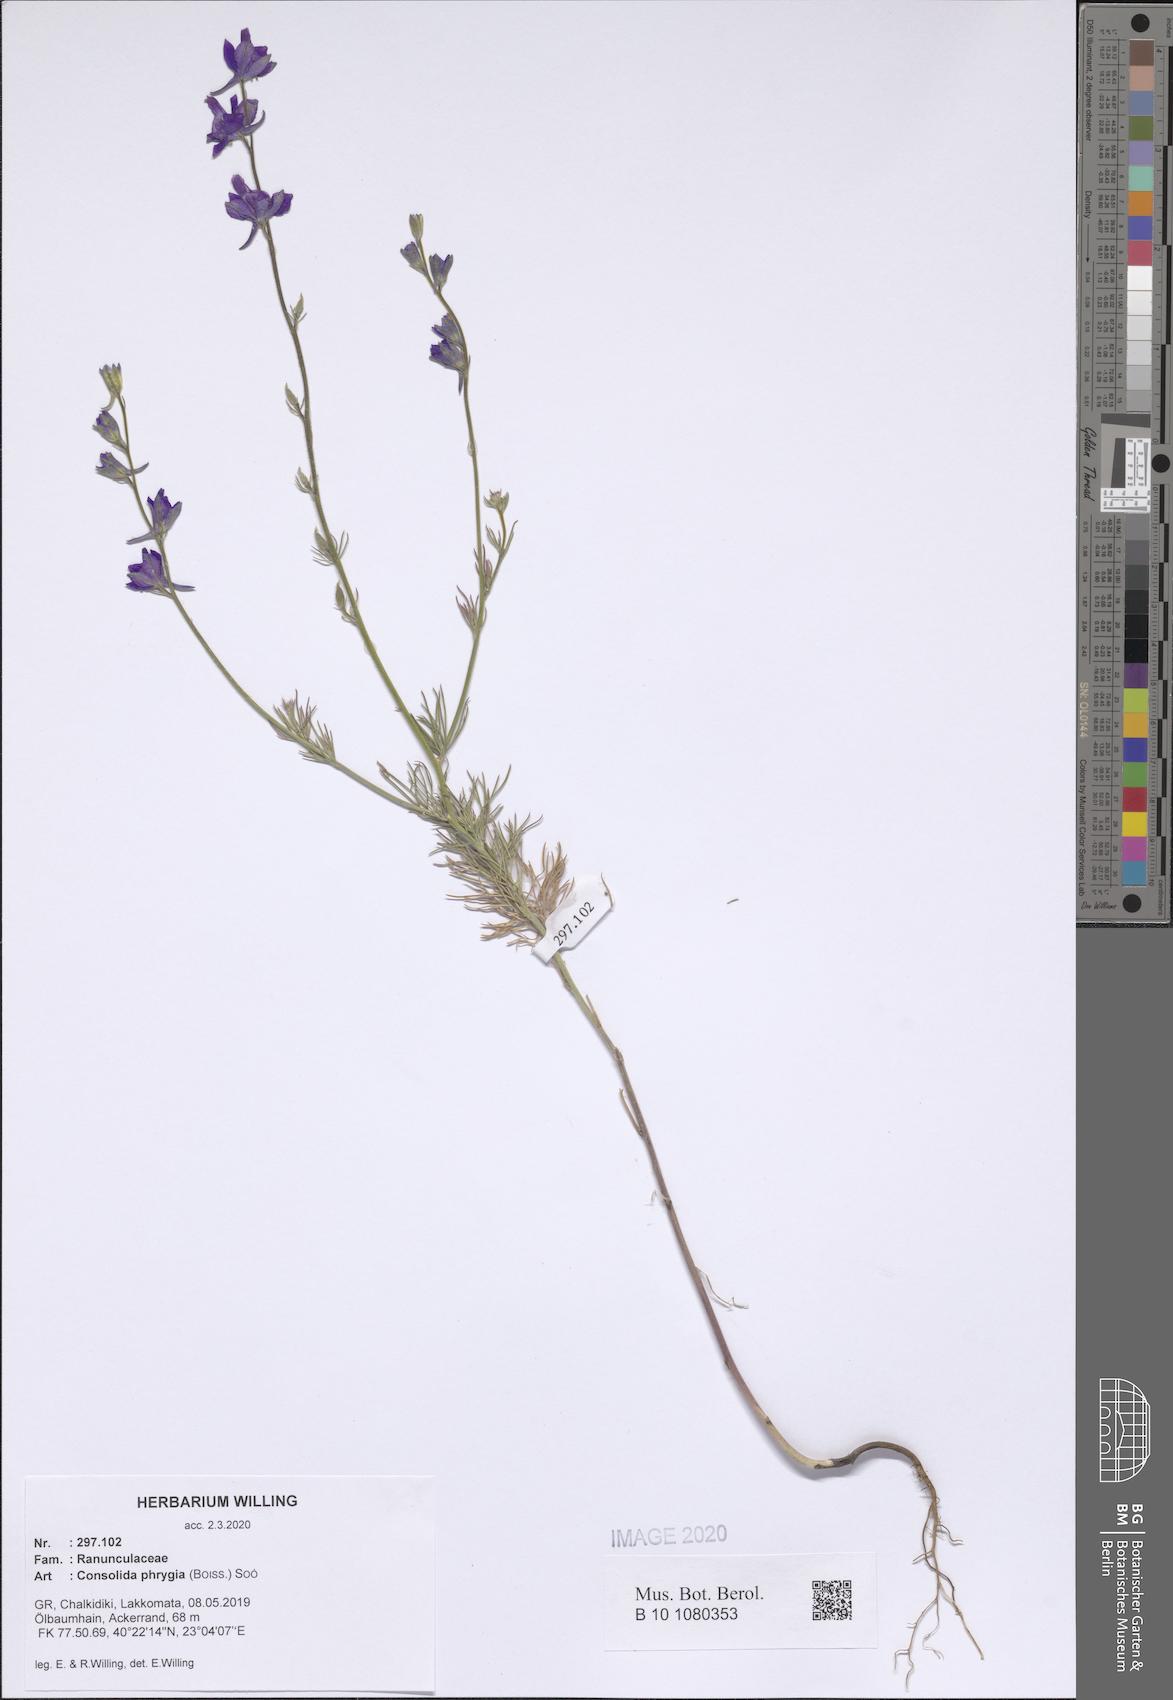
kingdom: Plantae
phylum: Tracheophyta
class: Magnoliopsida
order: Ranunculales
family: Ranunculaceae
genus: Delphinium
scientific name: Delphinium phrygium
